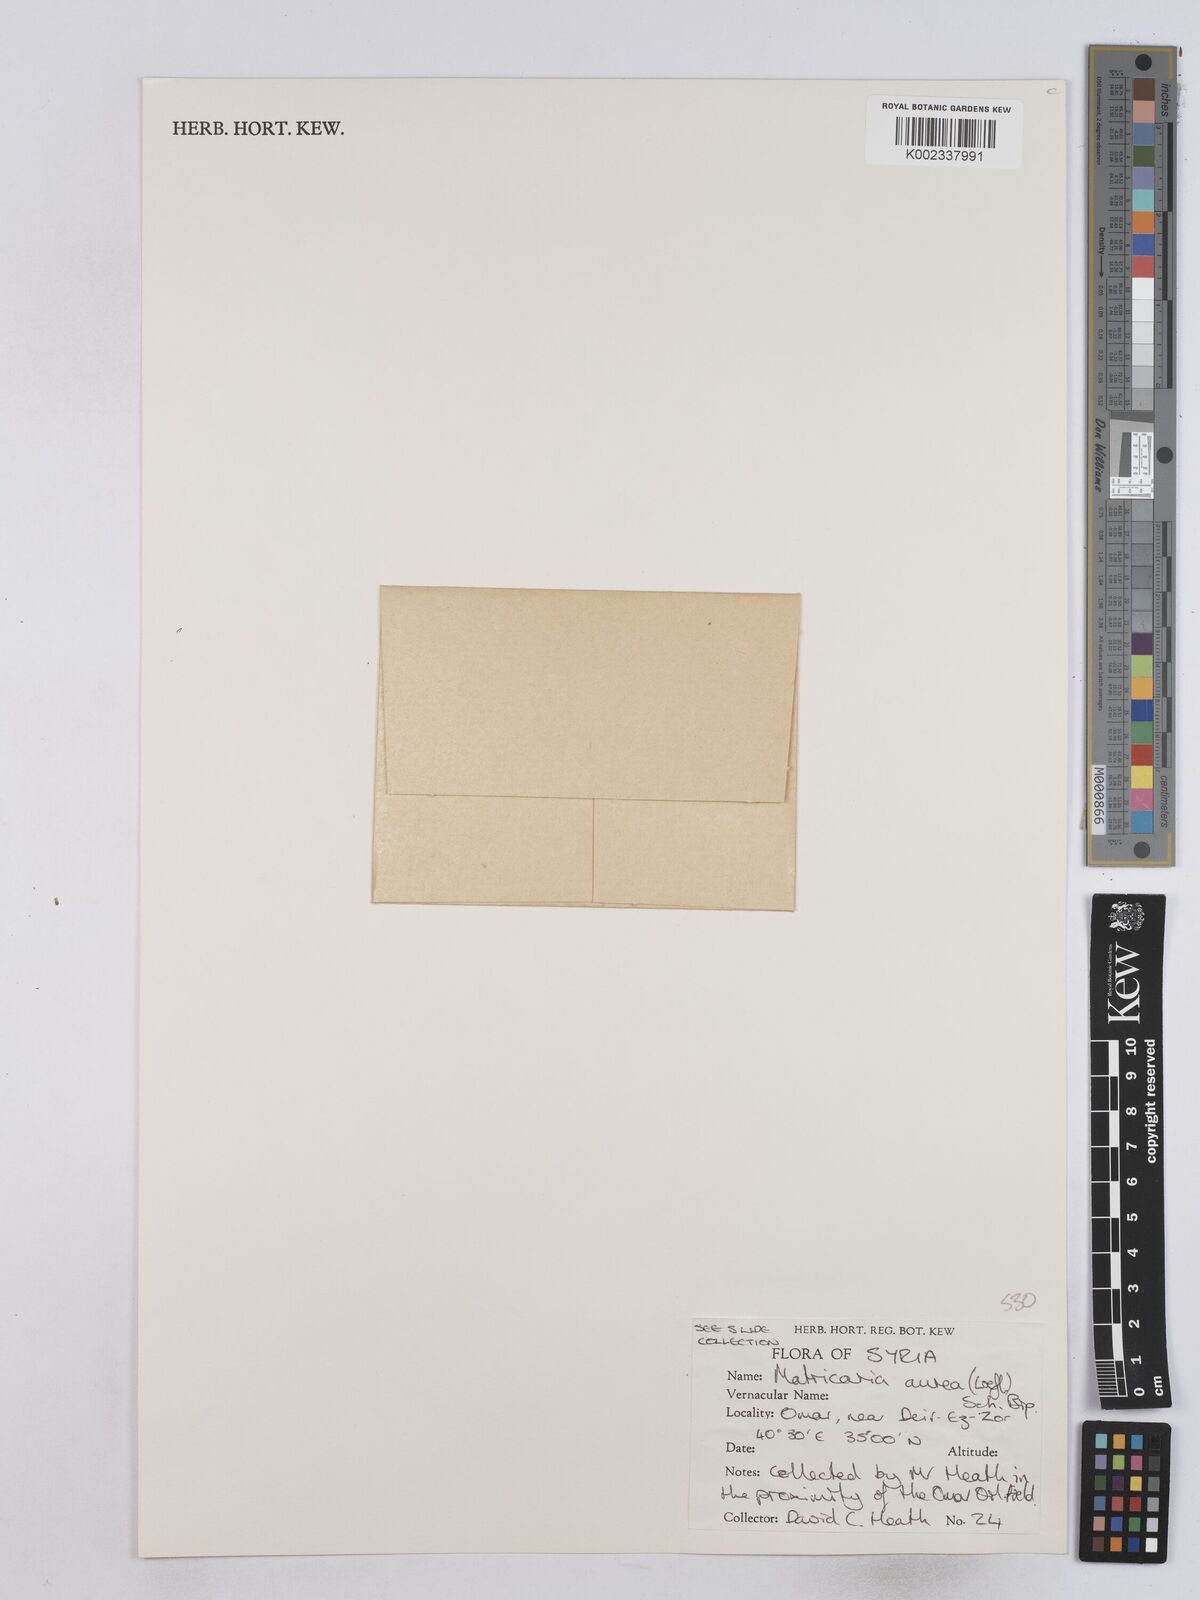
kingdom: Plantae
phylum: Tracheophyta
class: Magnoliopsida
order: Asterales
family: Asteraceae
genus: Matricaria
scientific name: Matricaria aurea
